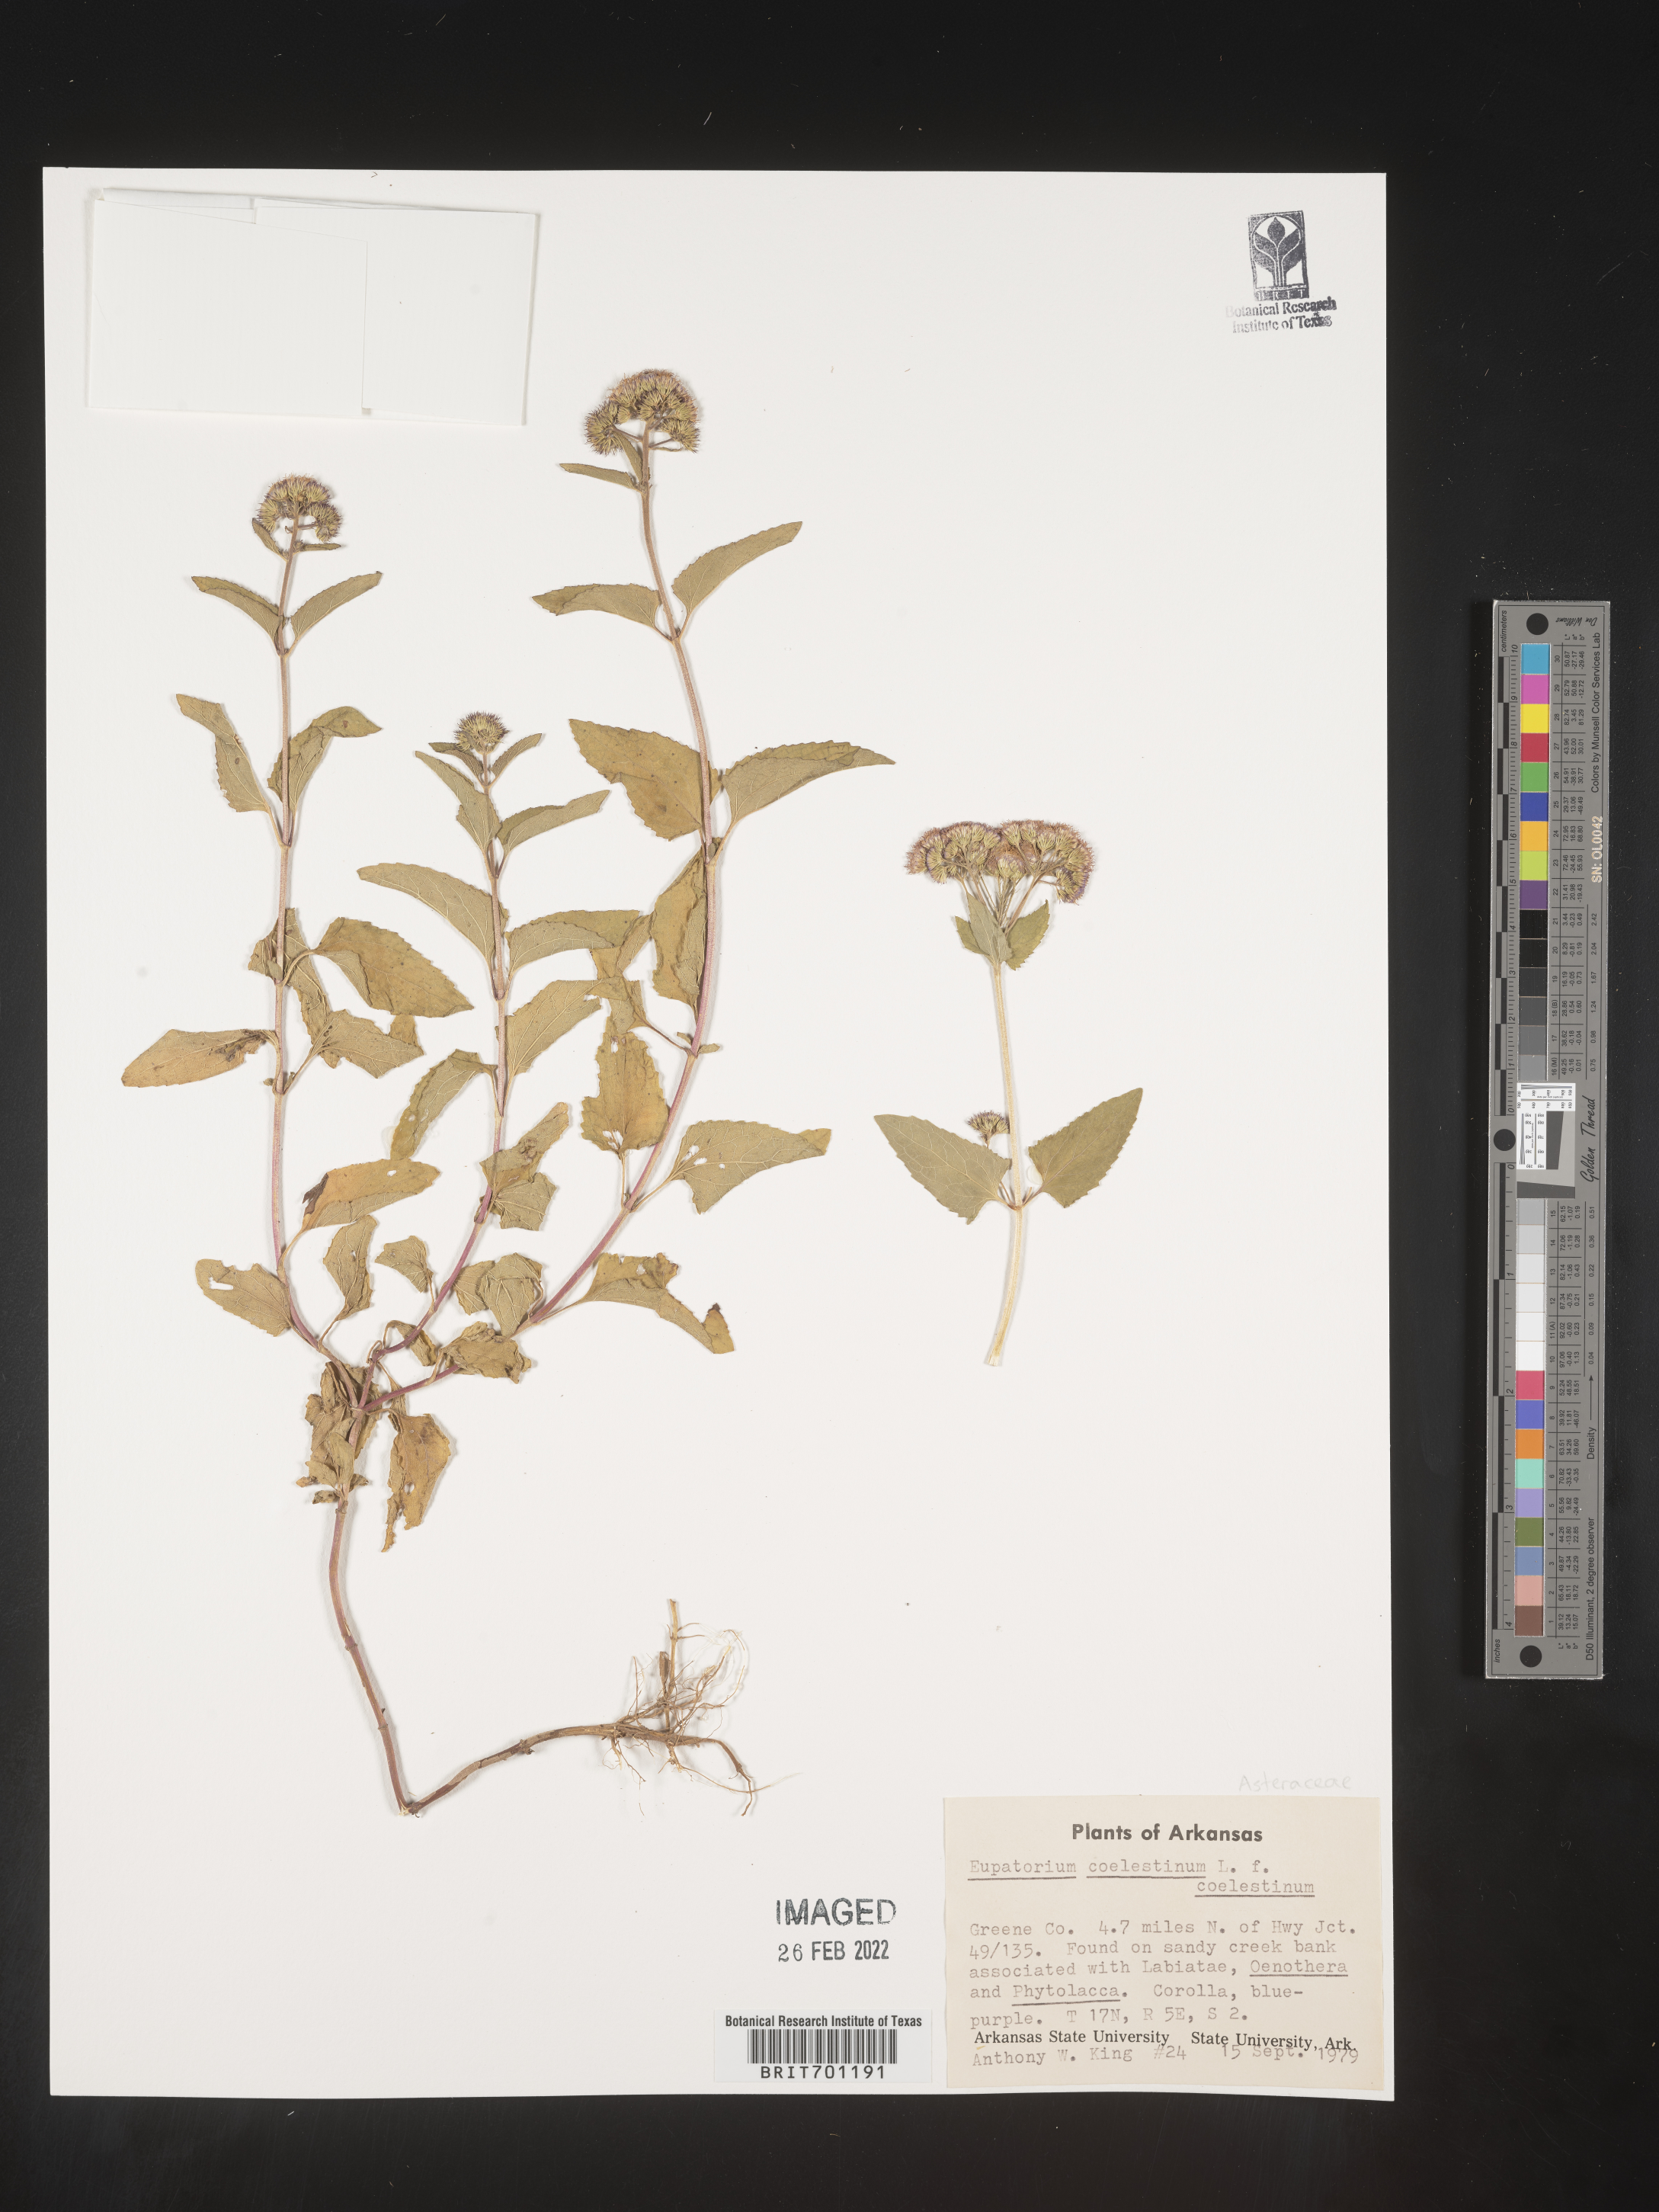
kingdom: Plantae
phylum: Tracheophyta
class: Magnoliopsida
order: Asterales
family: Asteraceae
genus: Conoclinium
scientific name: Conoclinium coelestinum
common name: Blue mistflower
